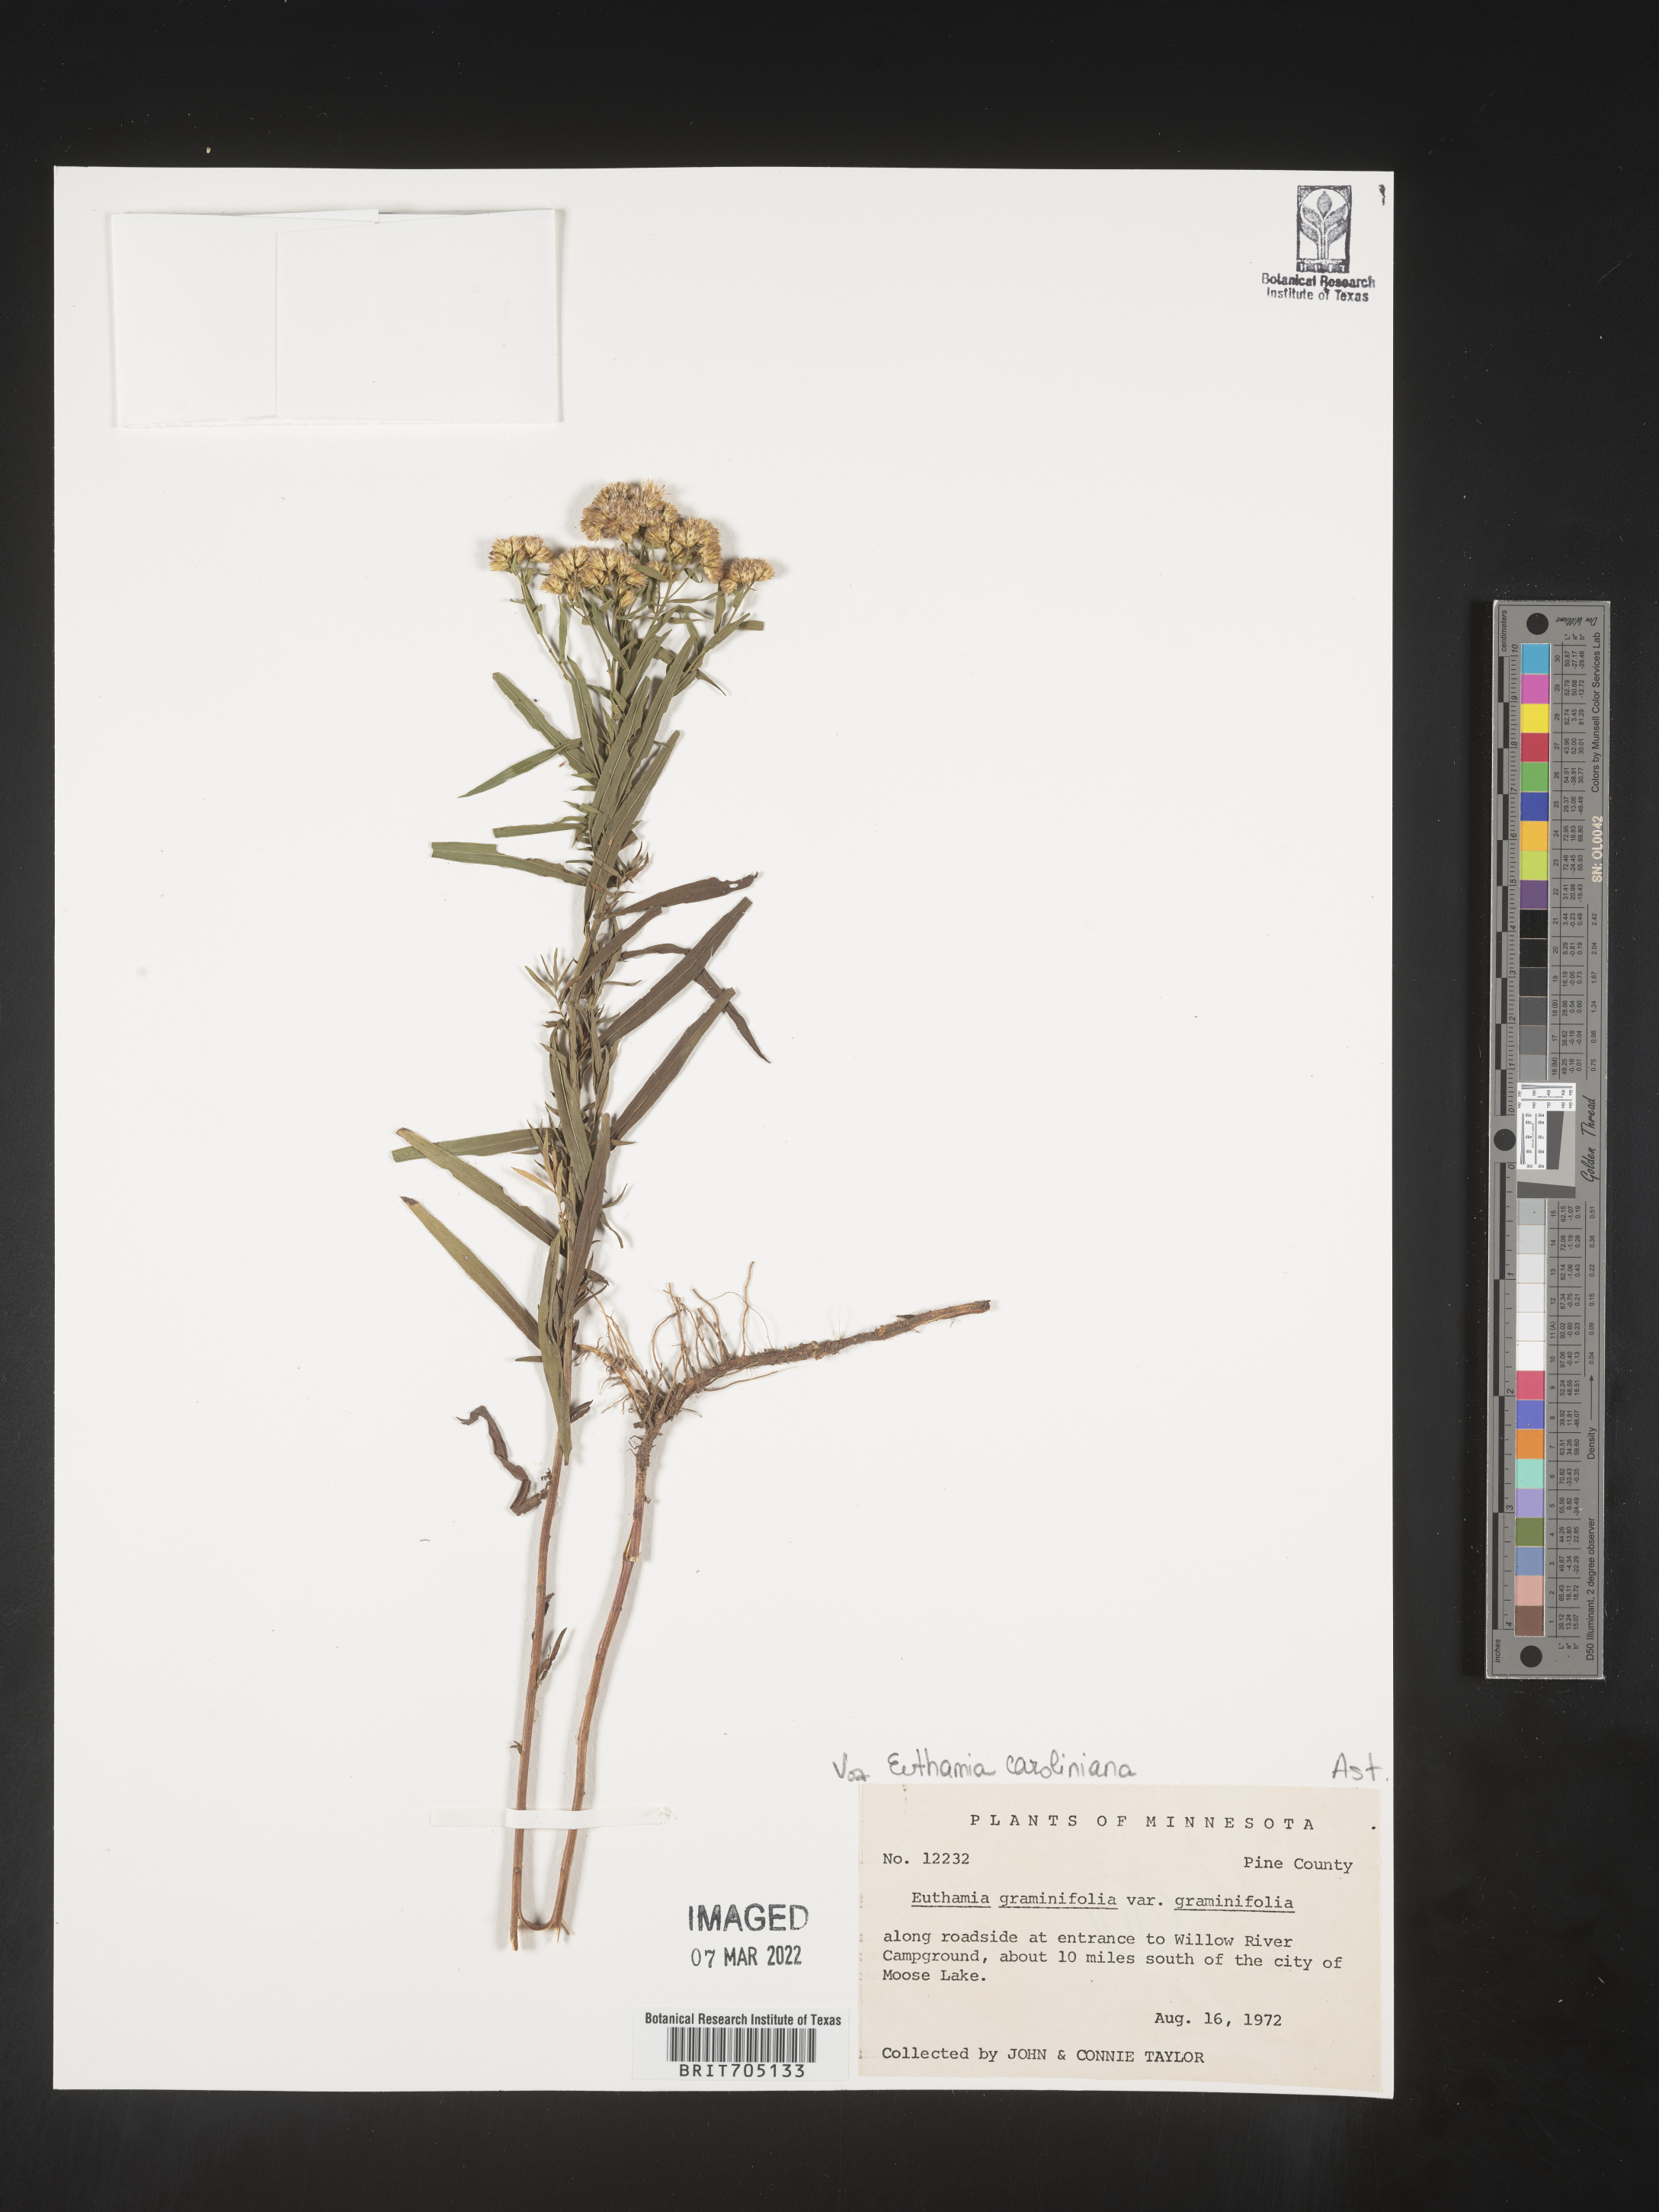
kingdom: Plantae
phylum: Tracheophyta
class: Magnoliopsida
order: Asterales
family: Asteraceae
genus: Euthamia
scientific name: Euthamia graminifolia
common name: Common goldentop
